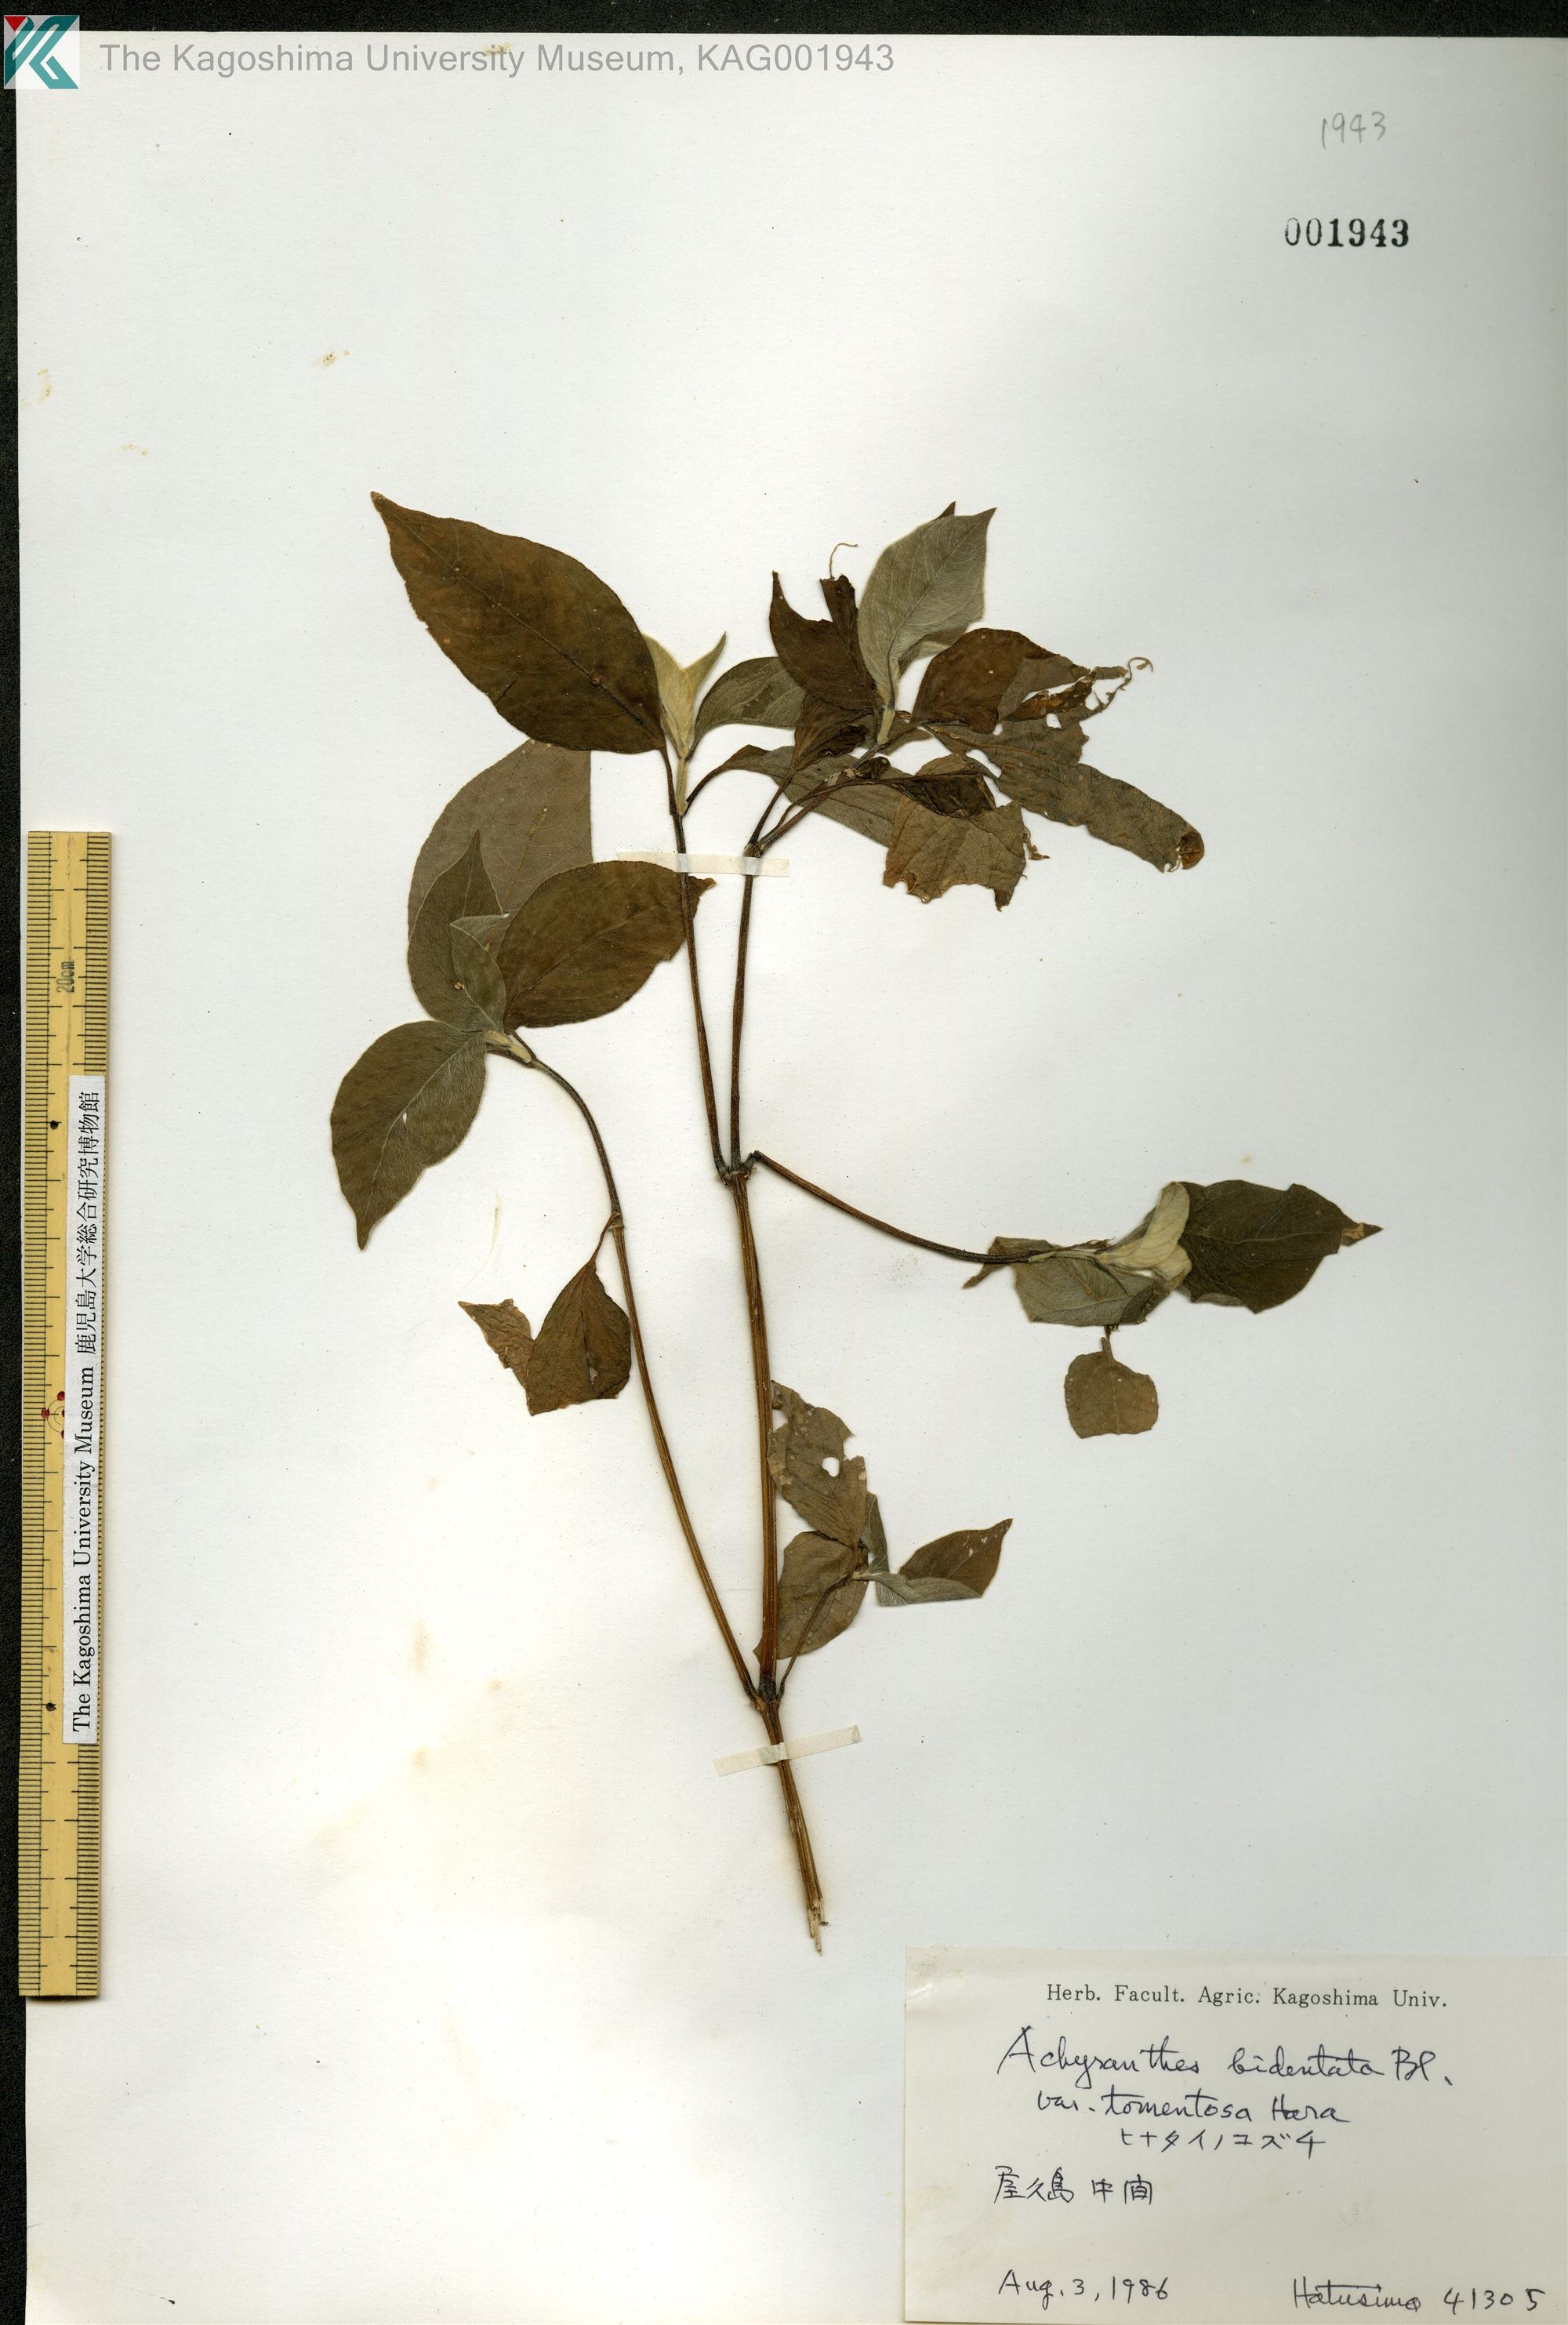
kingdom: Plantae
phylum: Tracheophyta
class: Magnoliopsida
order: Caryophyllales
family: Amaranthaceae
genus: Achyranthes
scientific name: Achyranthes bidentata
